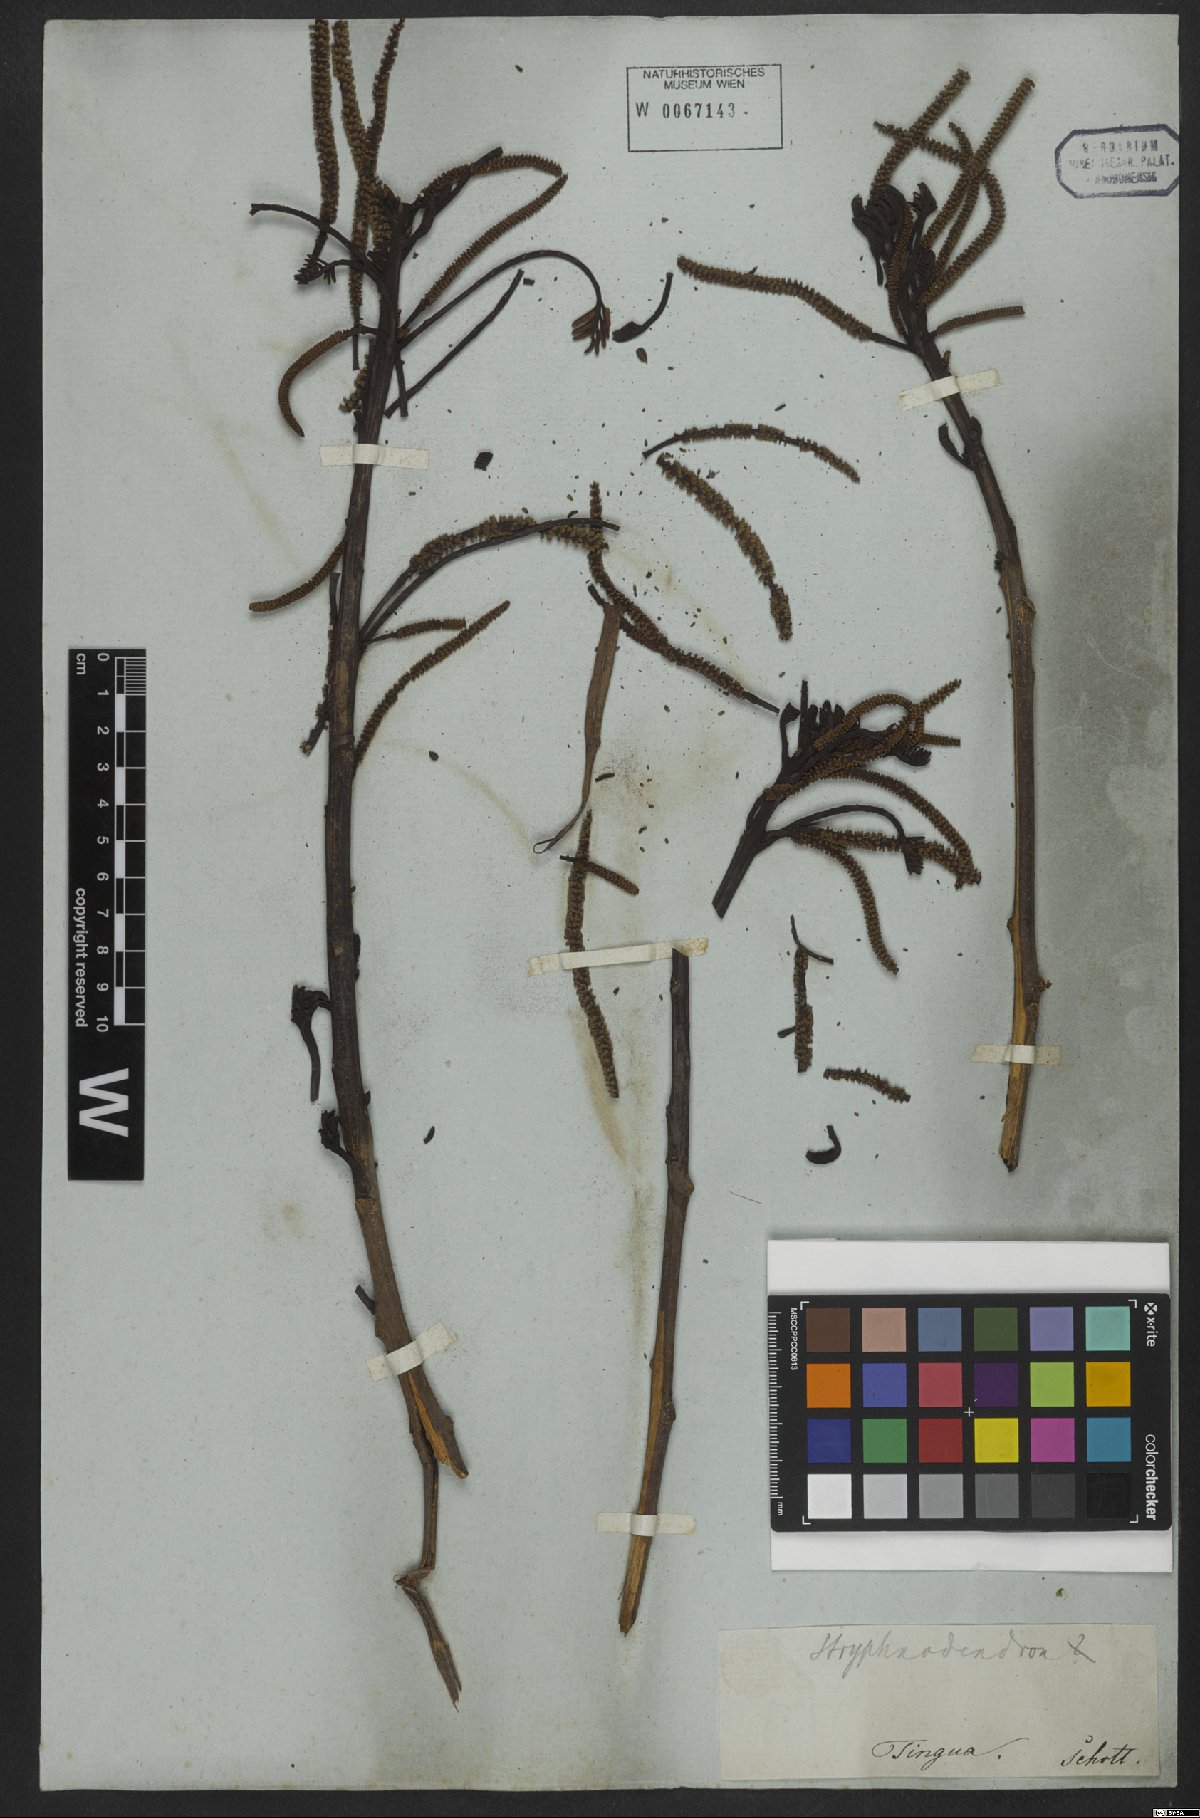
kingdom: Plantae
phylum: Tracheophyta
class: Magnoliopsida
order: Fabales
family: Fabaceae
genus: Stryphnodendron
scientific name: Stryphnodendron
